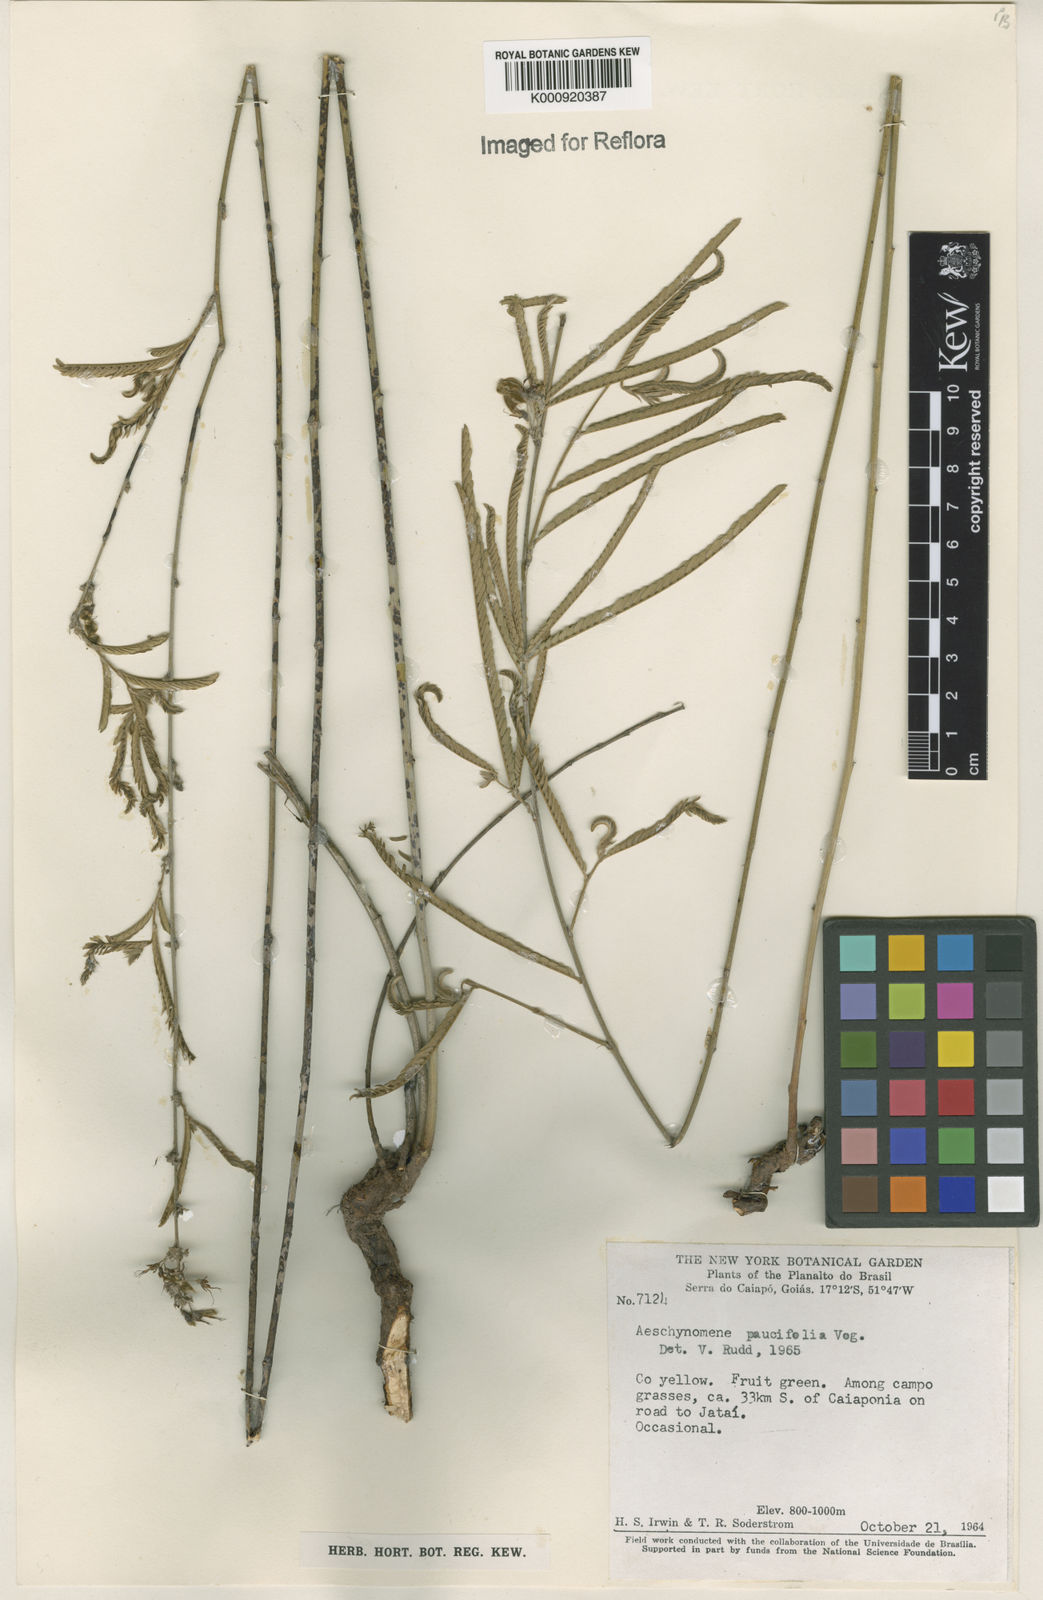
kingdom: Plantae
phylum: Tracheophyta
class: Magnoliopsida
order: Fabales
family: Fabaceae
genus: Ctenodon
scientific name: Ctenodon paucifolius
